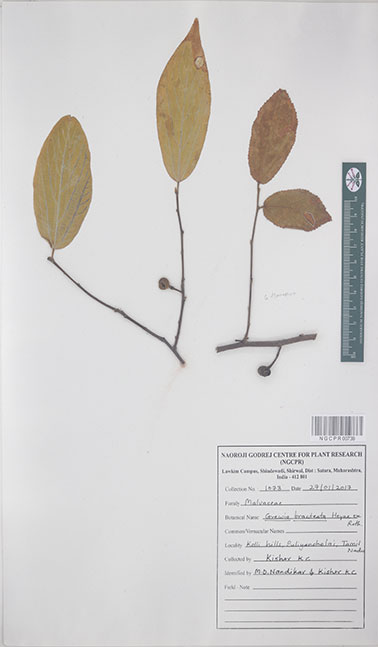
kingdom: Plantae
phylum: Tracheophyta
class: Magnoliopsida
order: Malvales
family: Malvaceae
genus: Grewia
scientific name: Grewia bracteata
